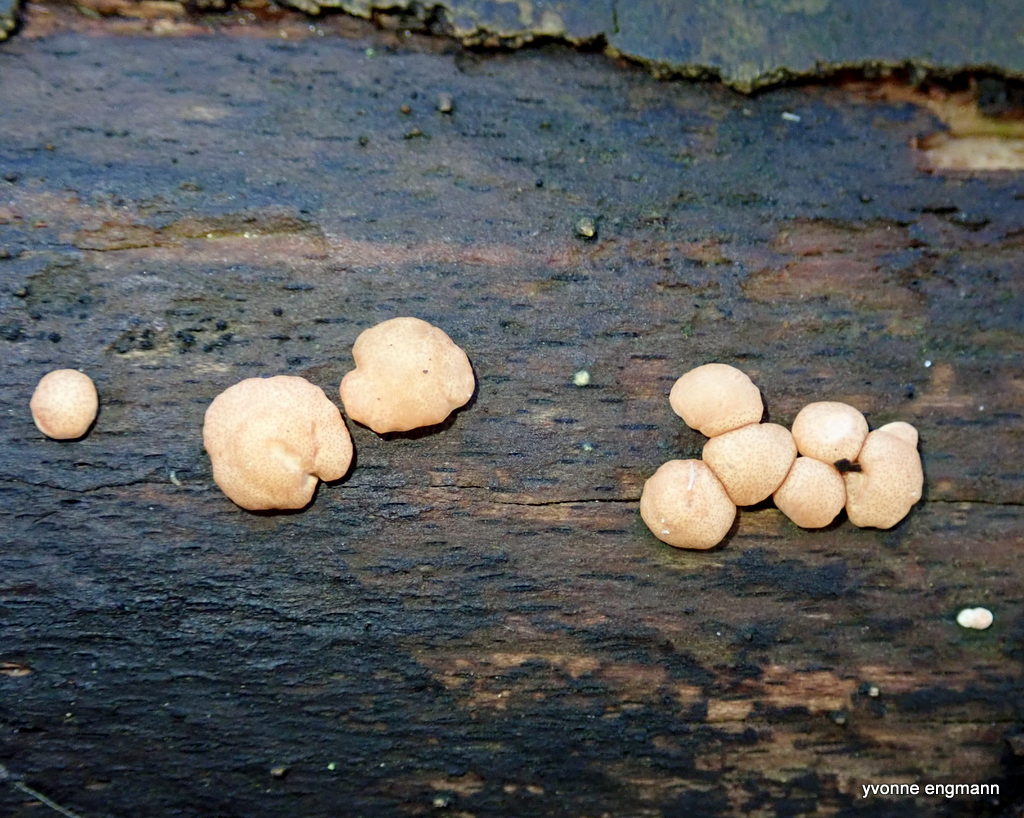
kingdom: Fungi
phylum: Ascomycota
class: Sordariomycetes
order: Hypocreales
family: Hypocreaceae
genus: Trichoderma
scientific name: Trichoderma europaeum
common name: rosabrun kødkerne
